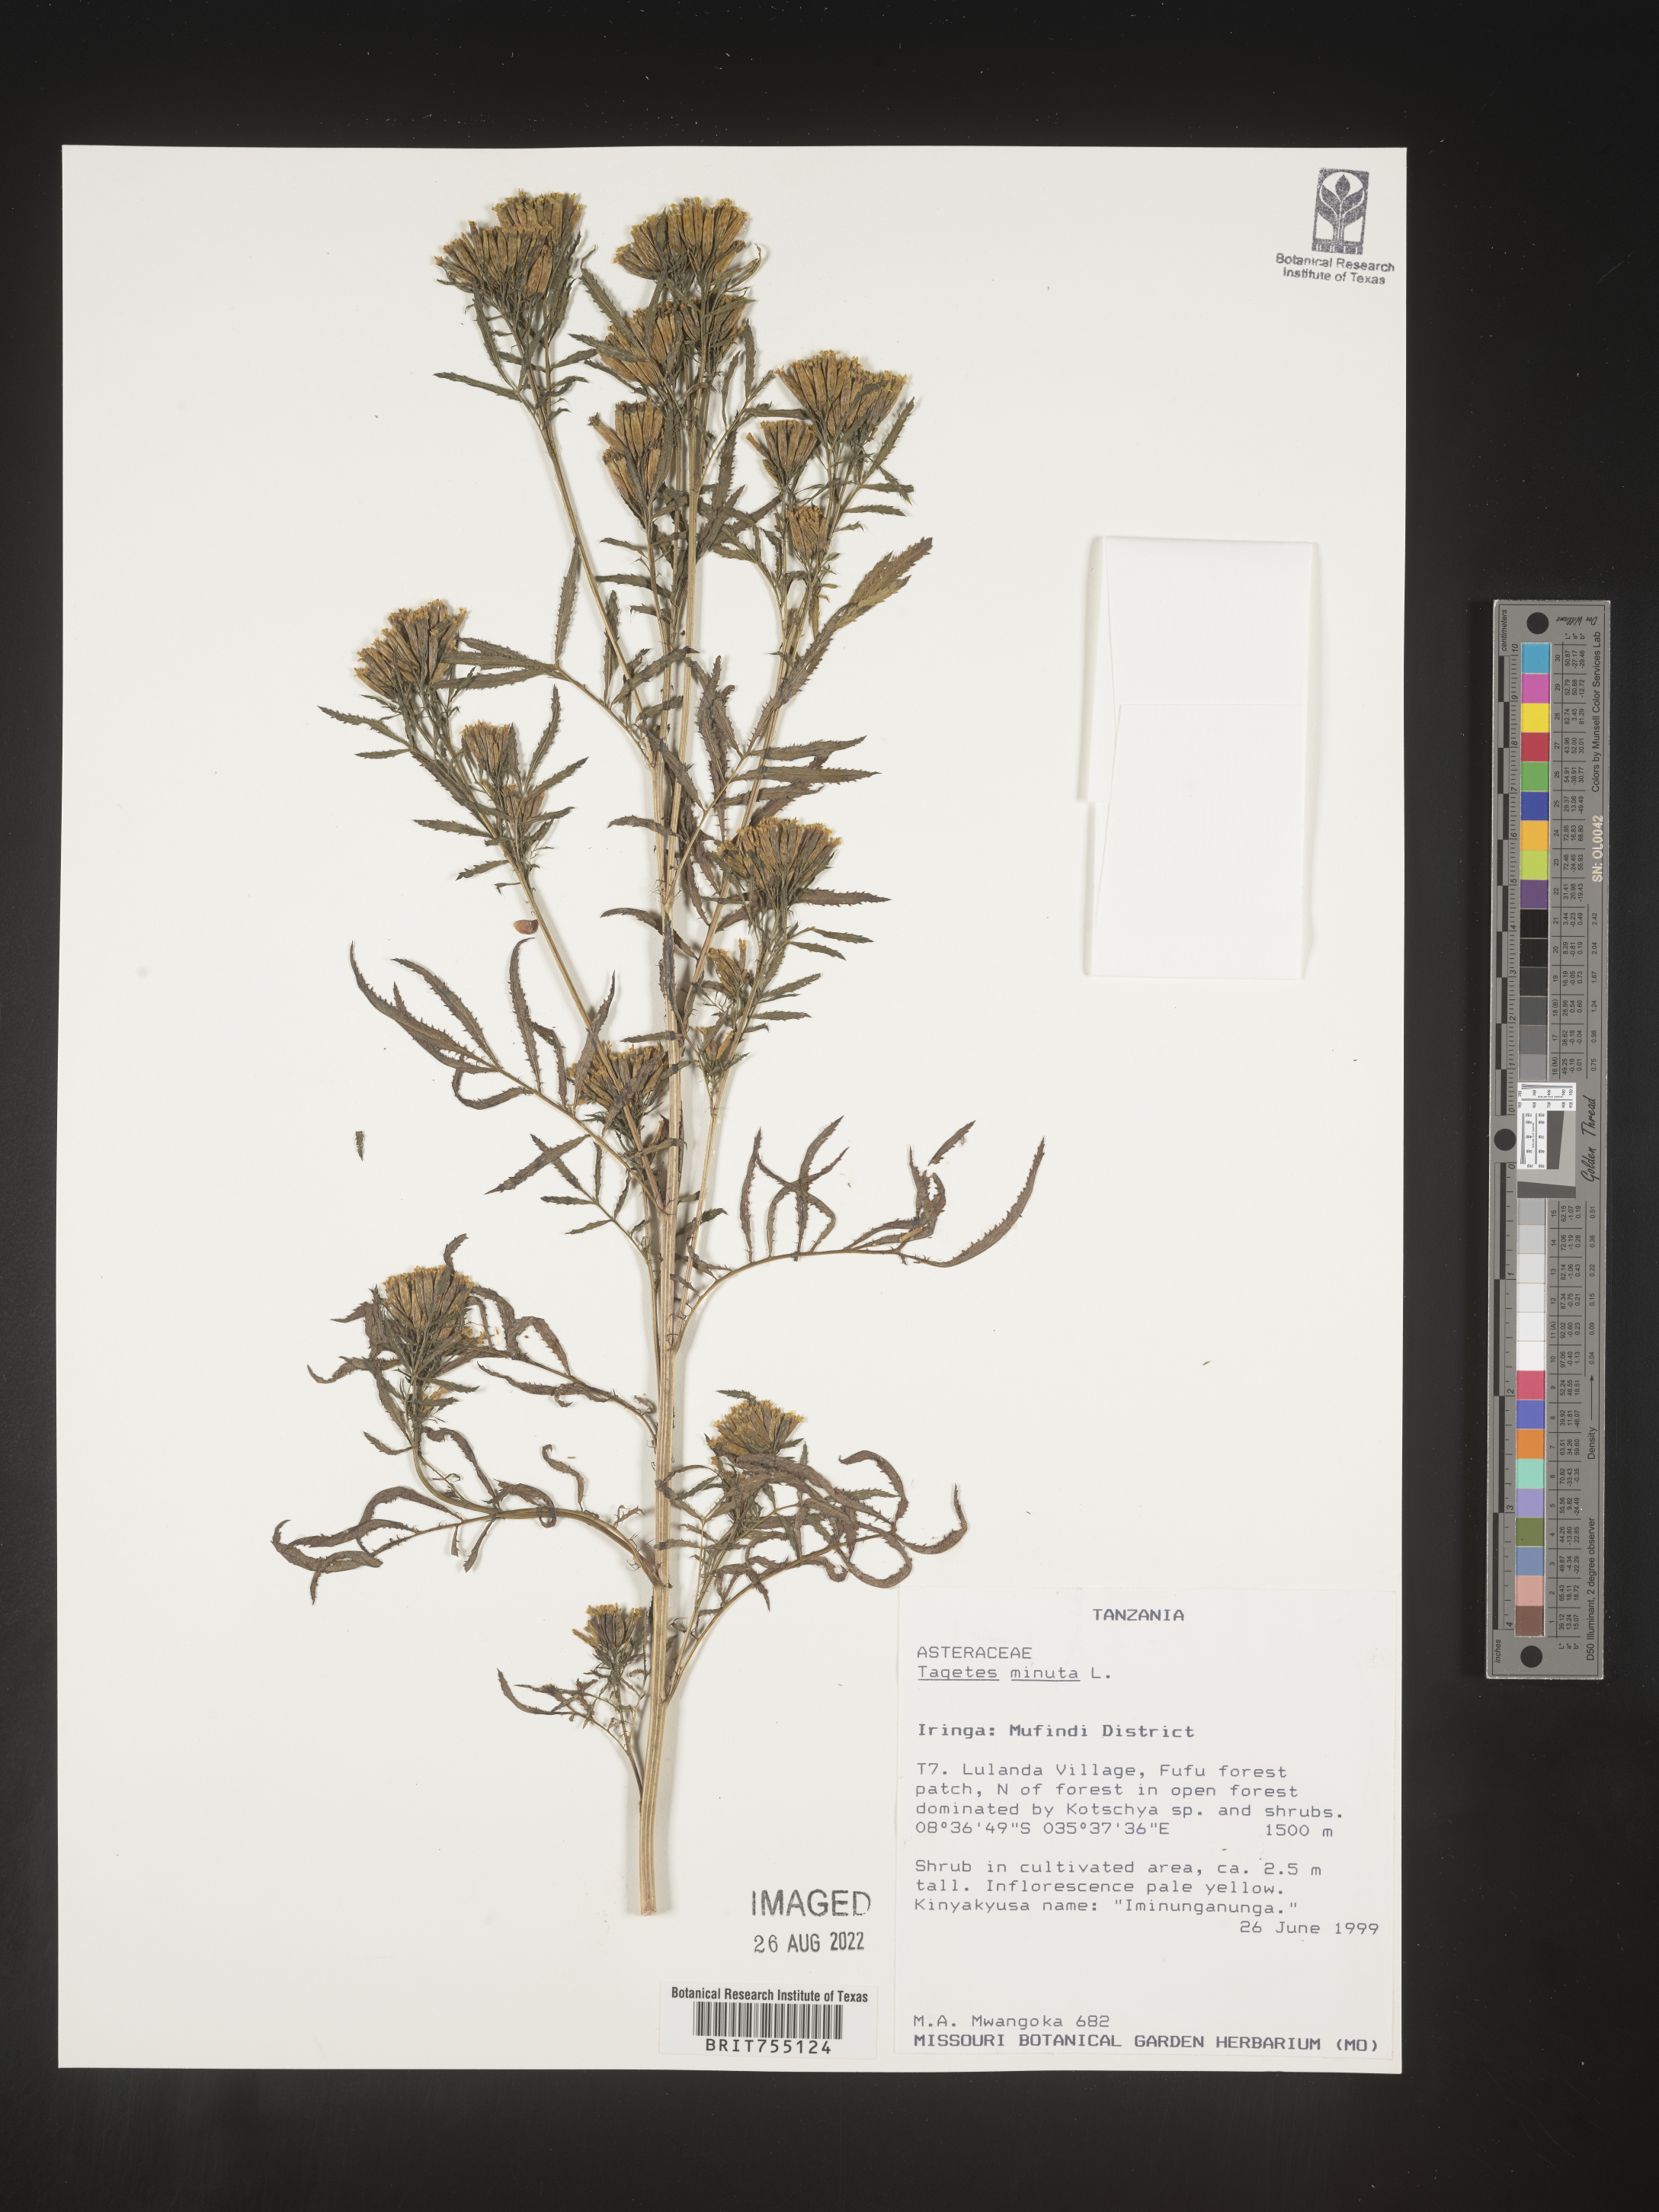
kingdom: Plantae
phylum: Tracheophyta
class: Magnoliopsida
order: Asterales
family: Asteraceae
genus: Tagetes
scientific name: Tagetes
